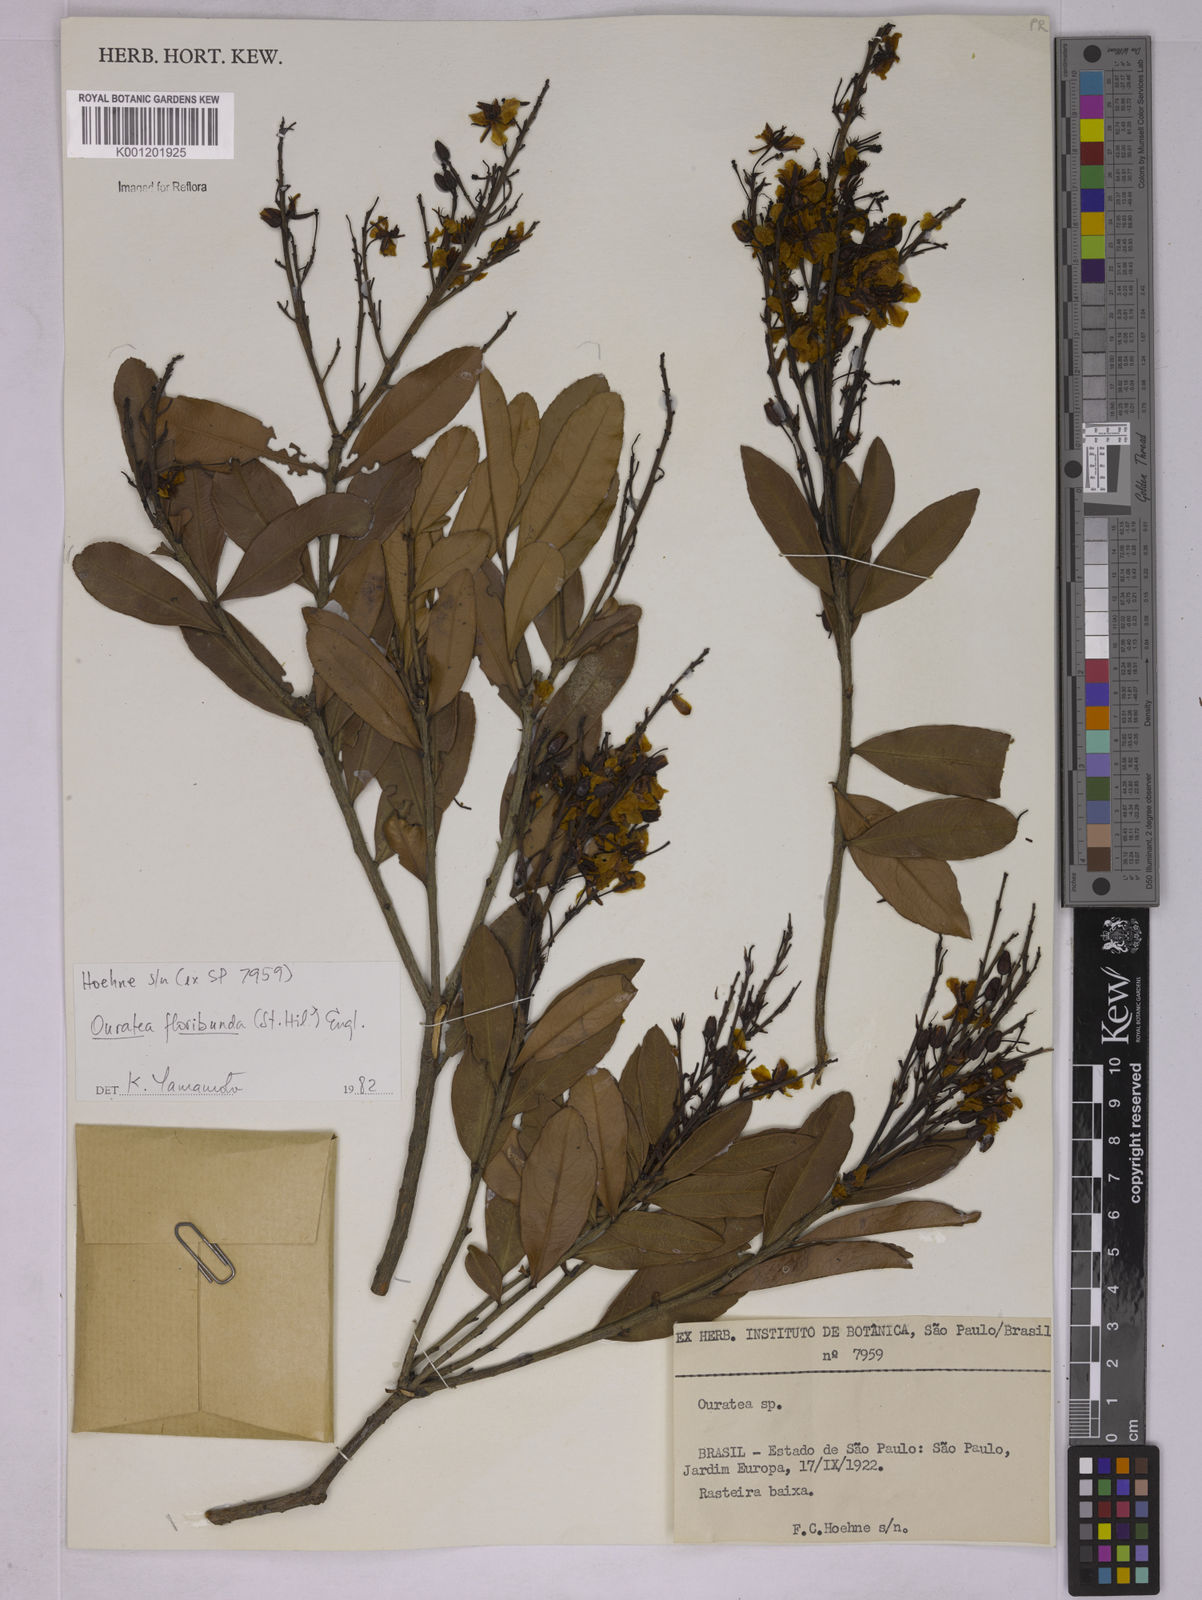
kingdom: Plantae
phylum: Tracheophyta
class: Magnoliopsida
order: Malpighiales
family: Ochnaceae
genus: Ouratea
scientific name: Ouratea floribunda
